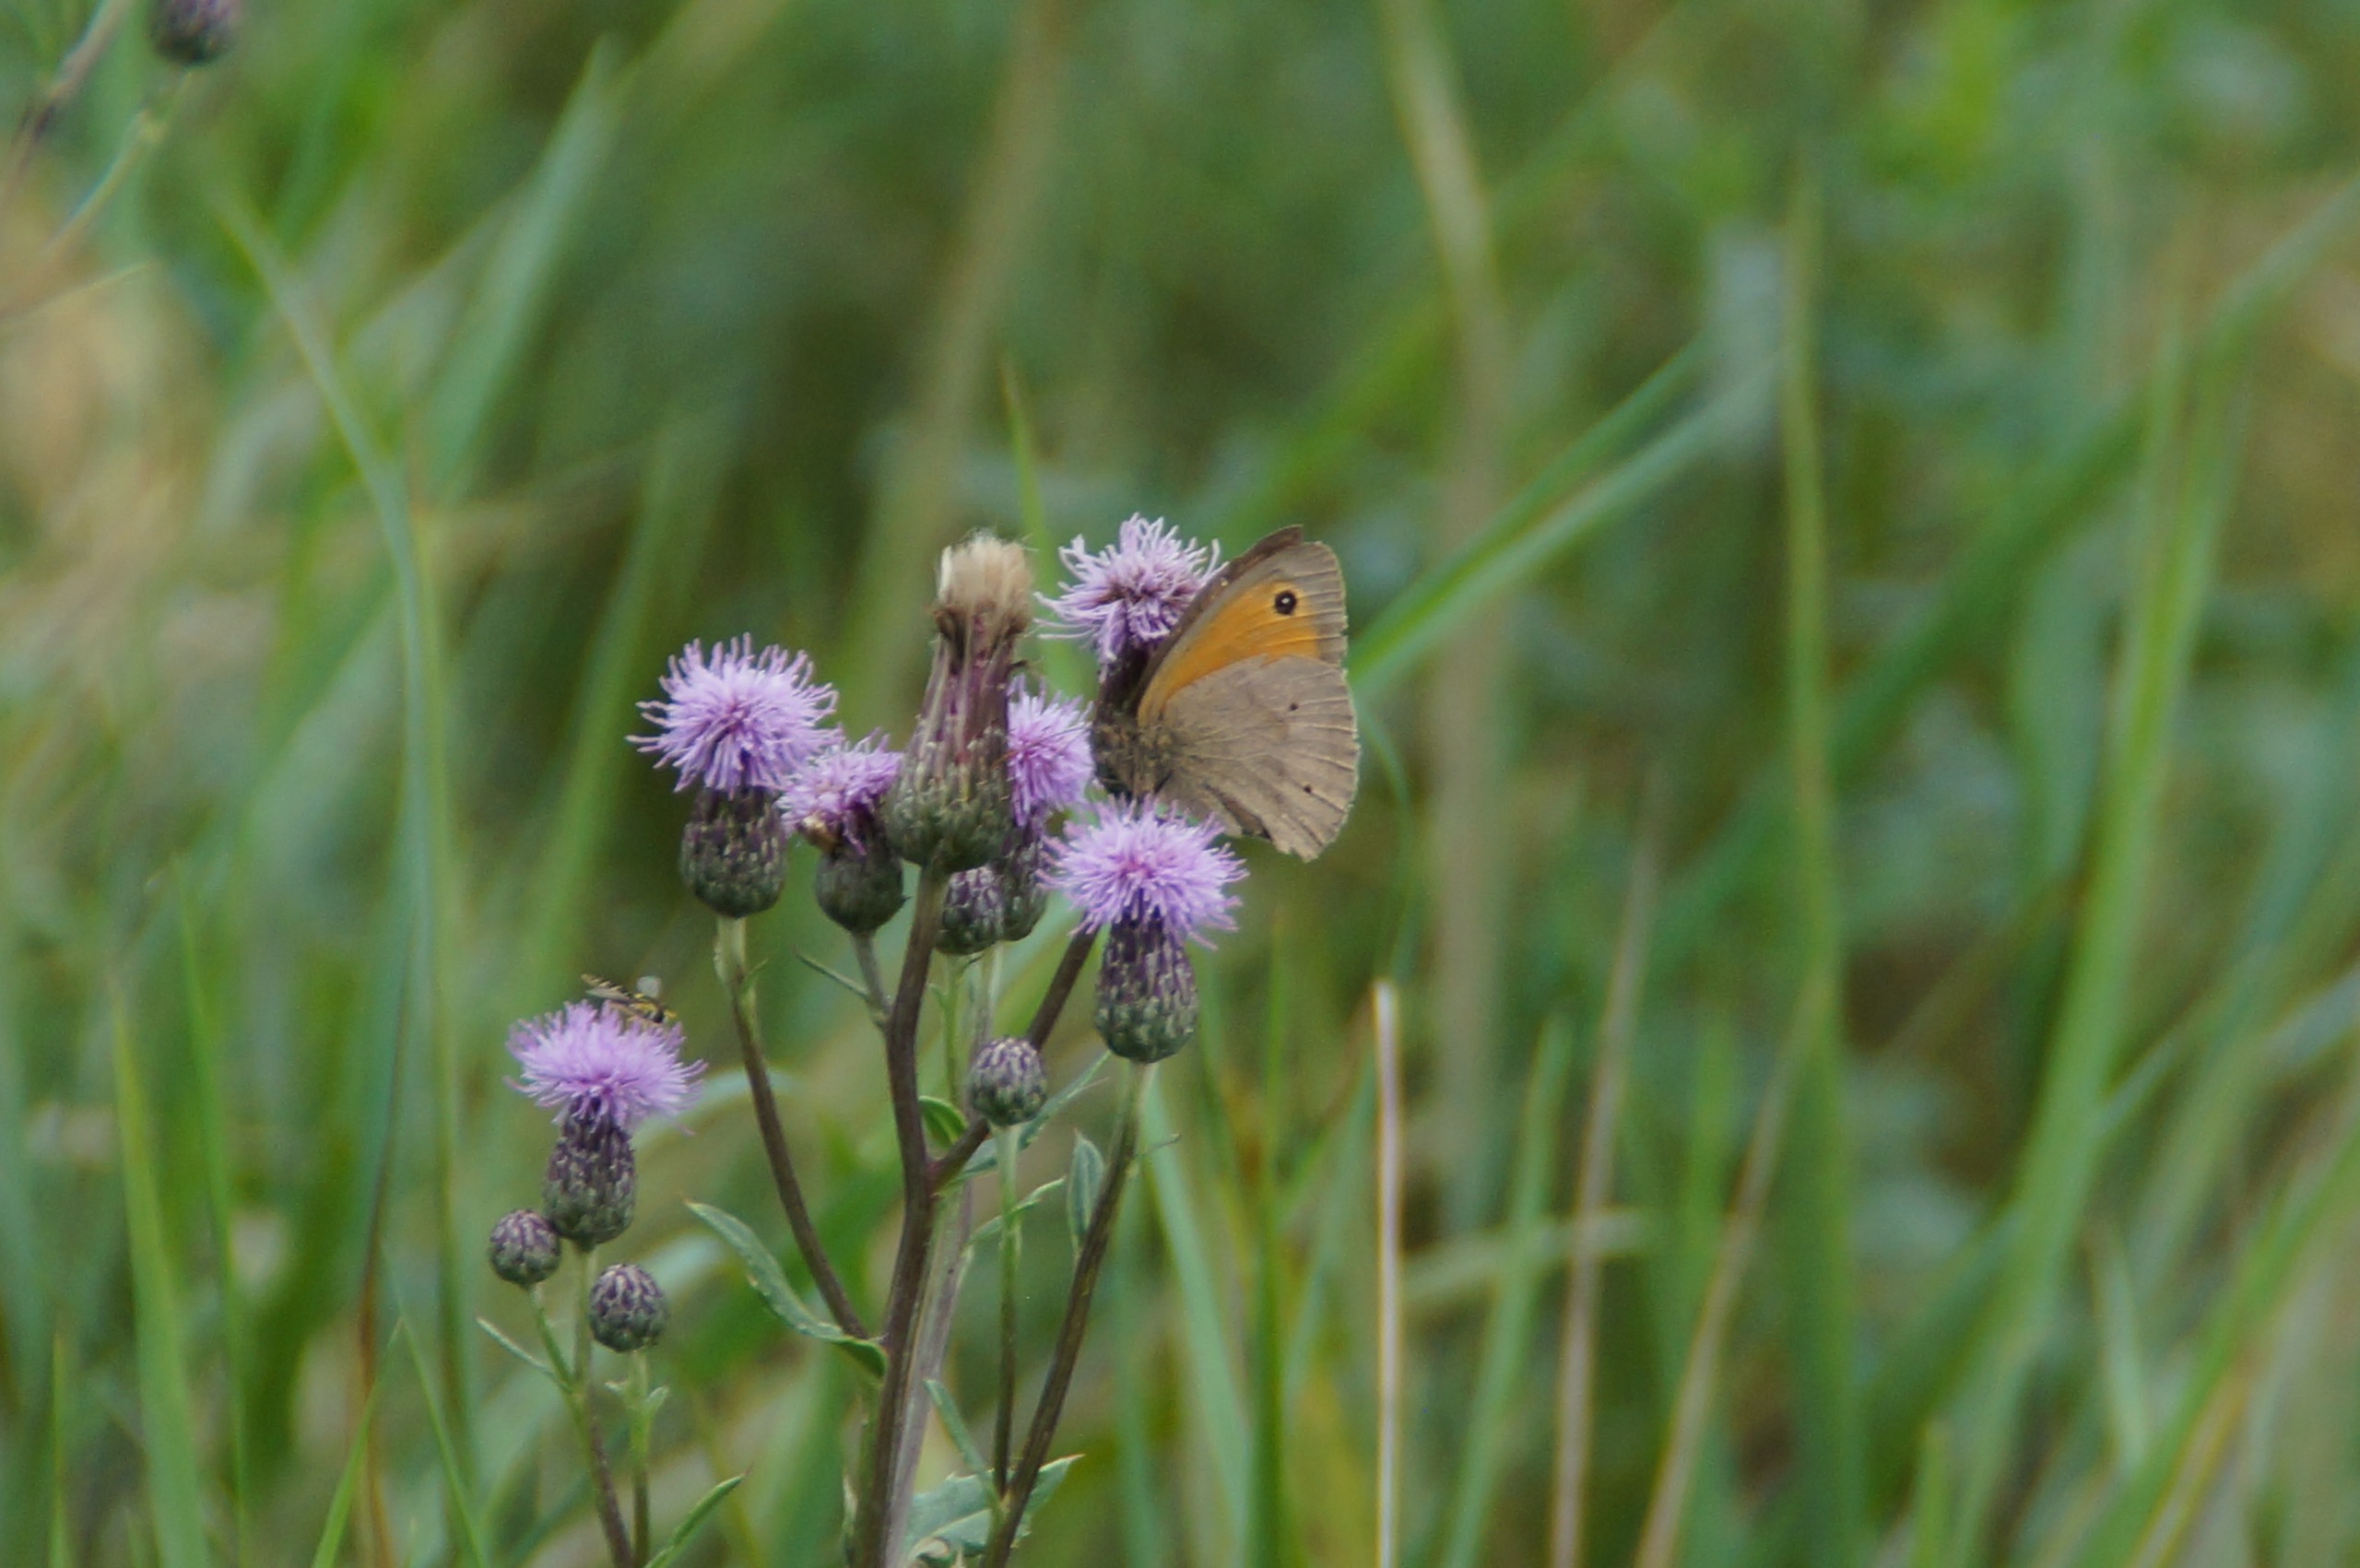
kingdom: Animalia
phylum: Arthropoda
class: Insecta
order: Lepidoptera
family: Nymphalidae
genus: Maniola
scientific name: Maniola jurtina
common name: Græsrandøje
